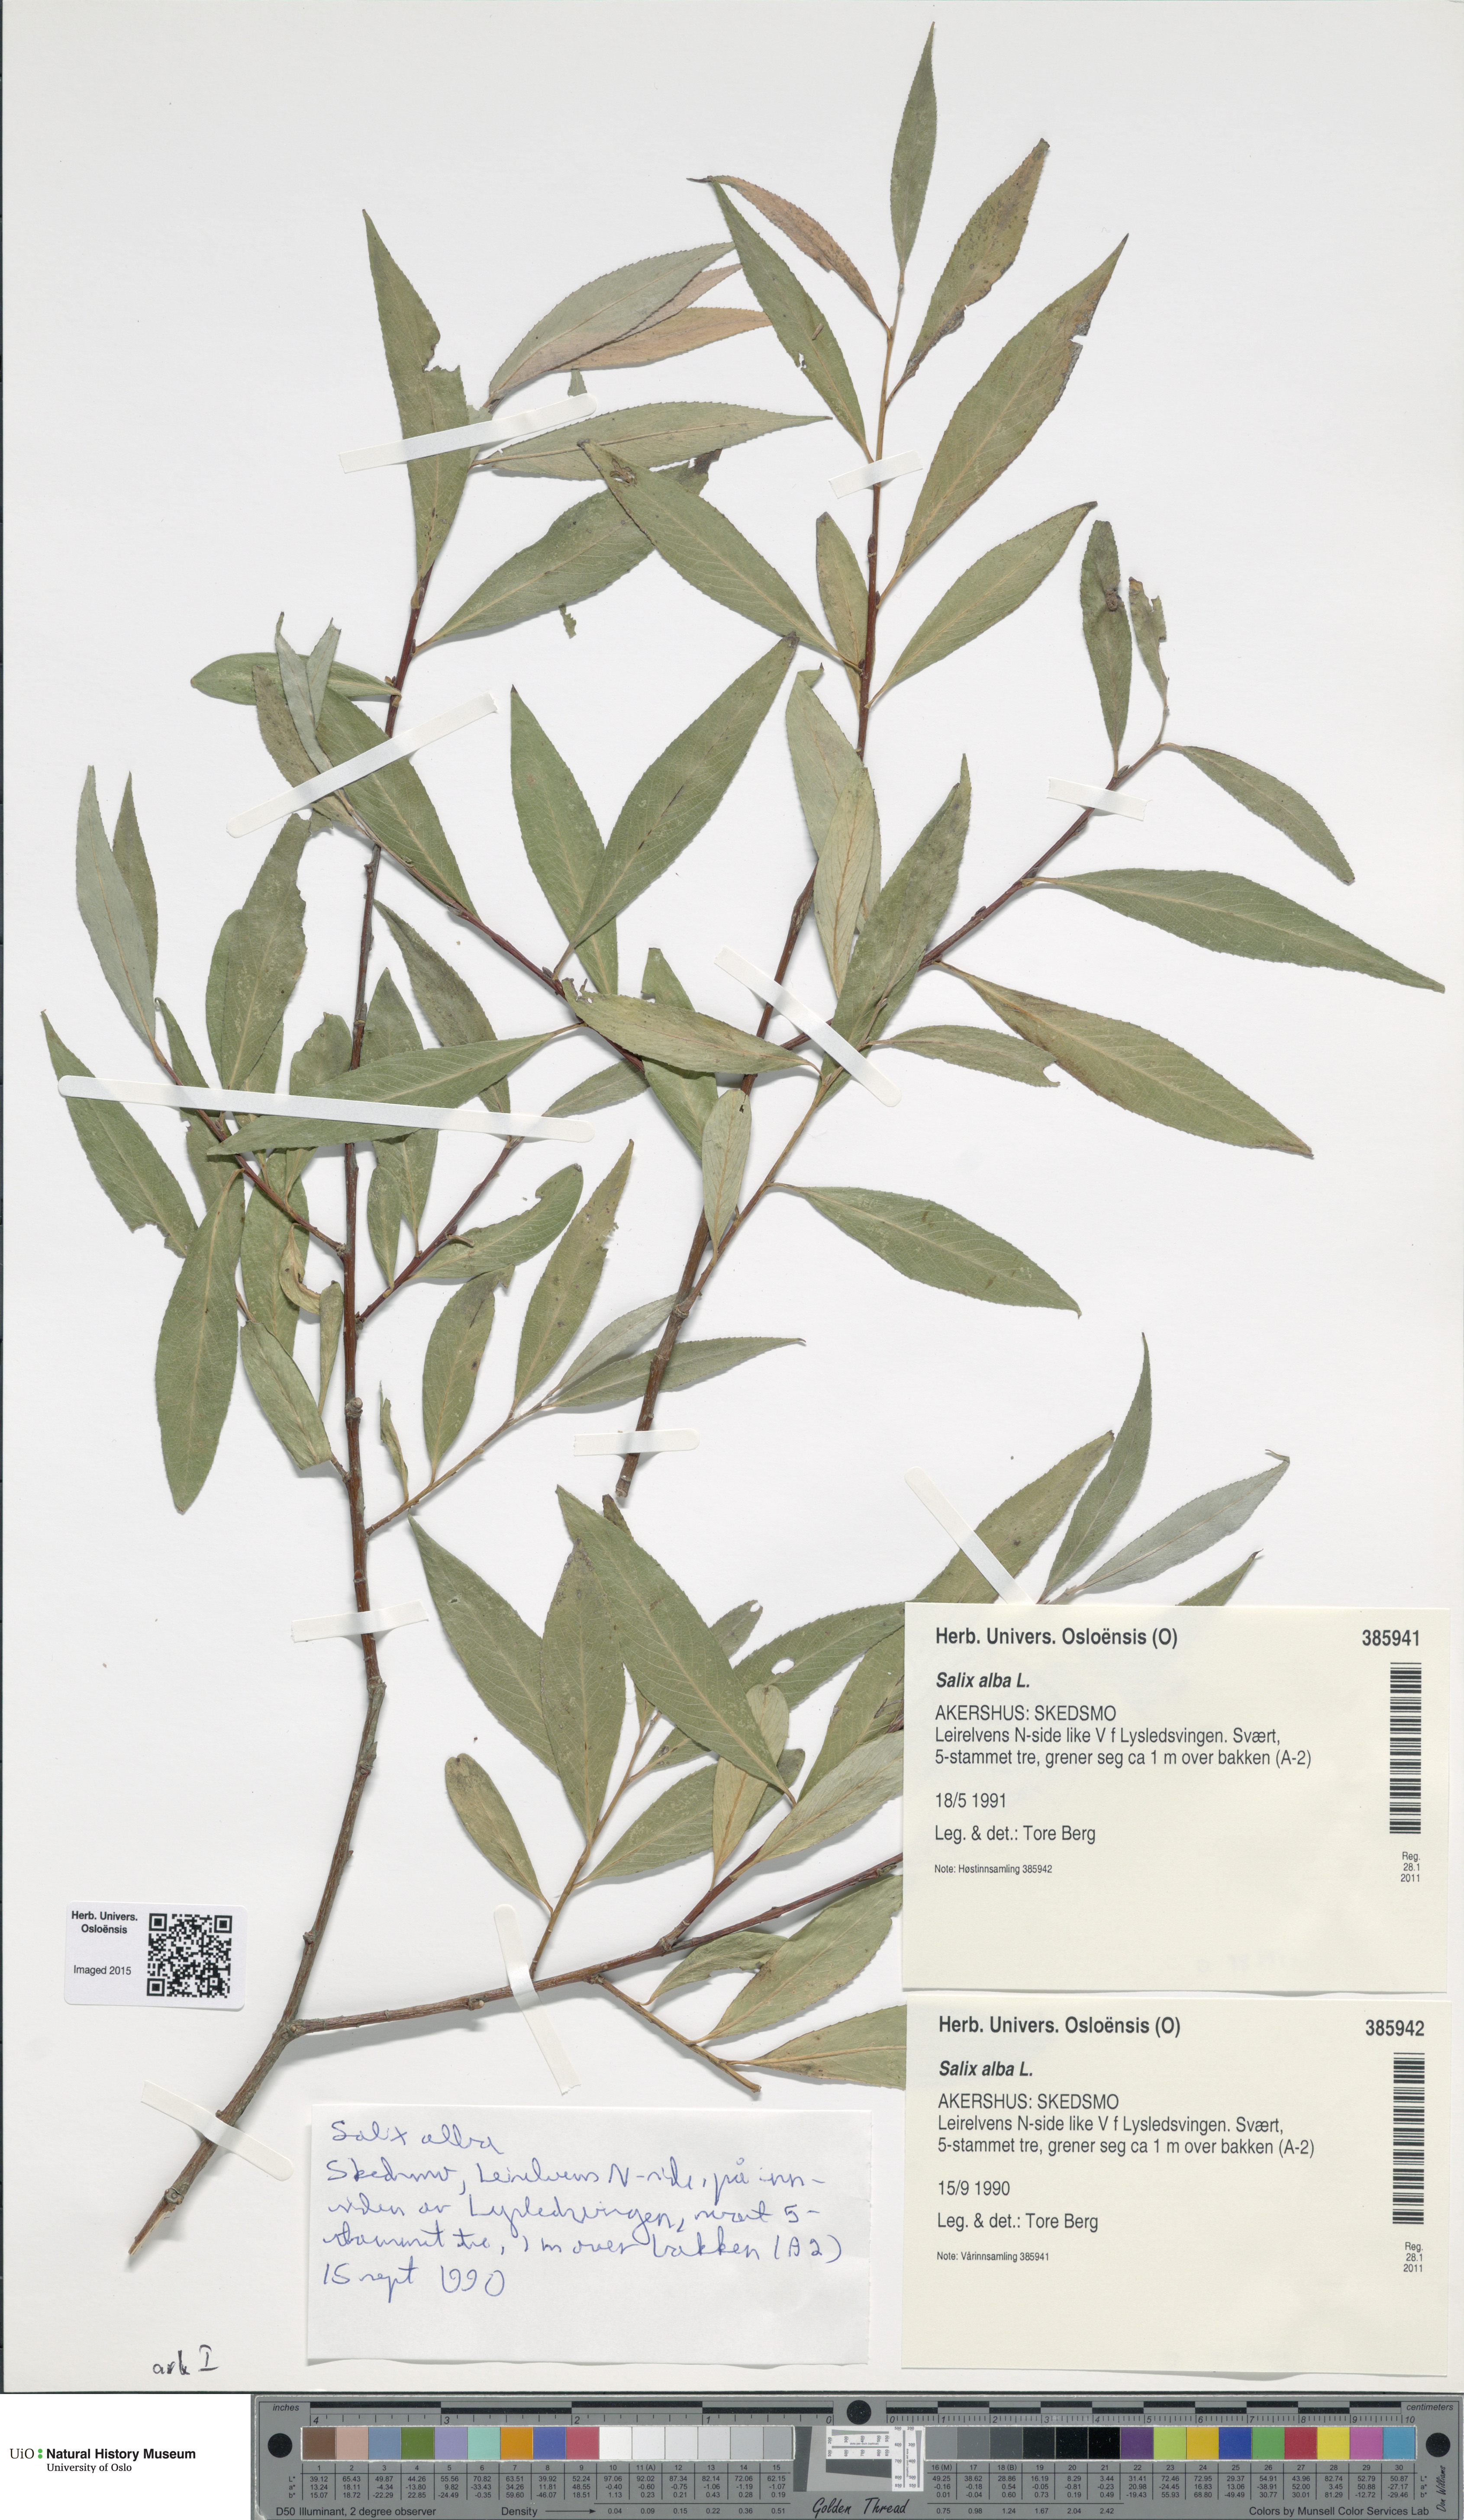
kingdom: Plantae
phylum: Tracheophyta
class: Magnoliopsida
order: Malpighiales
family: Salicaceae
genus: Salix
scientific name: Salix alba
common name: White willow
